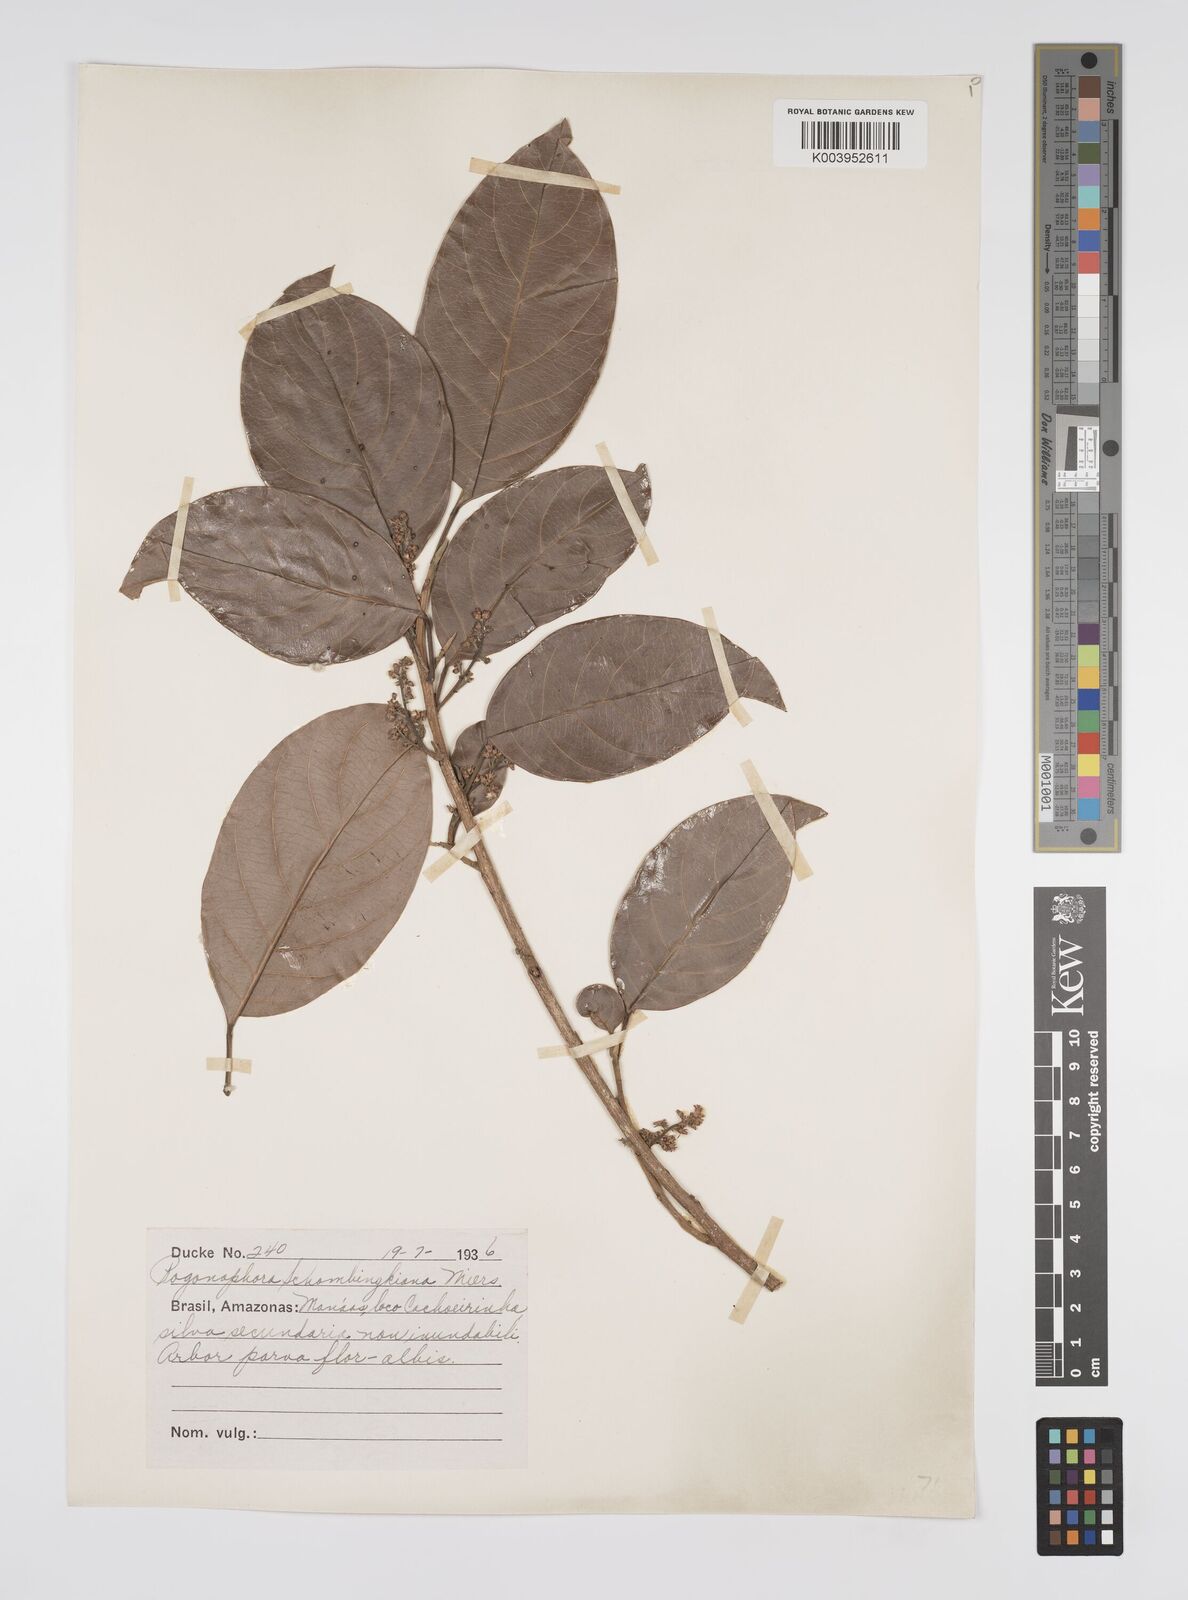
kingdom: Plantae
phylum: Tracheophyta
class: Magnoliopsida
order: Malpighiales
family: Peraceae
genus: Pogonophora
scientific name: Pogonophora schomburgkiana
